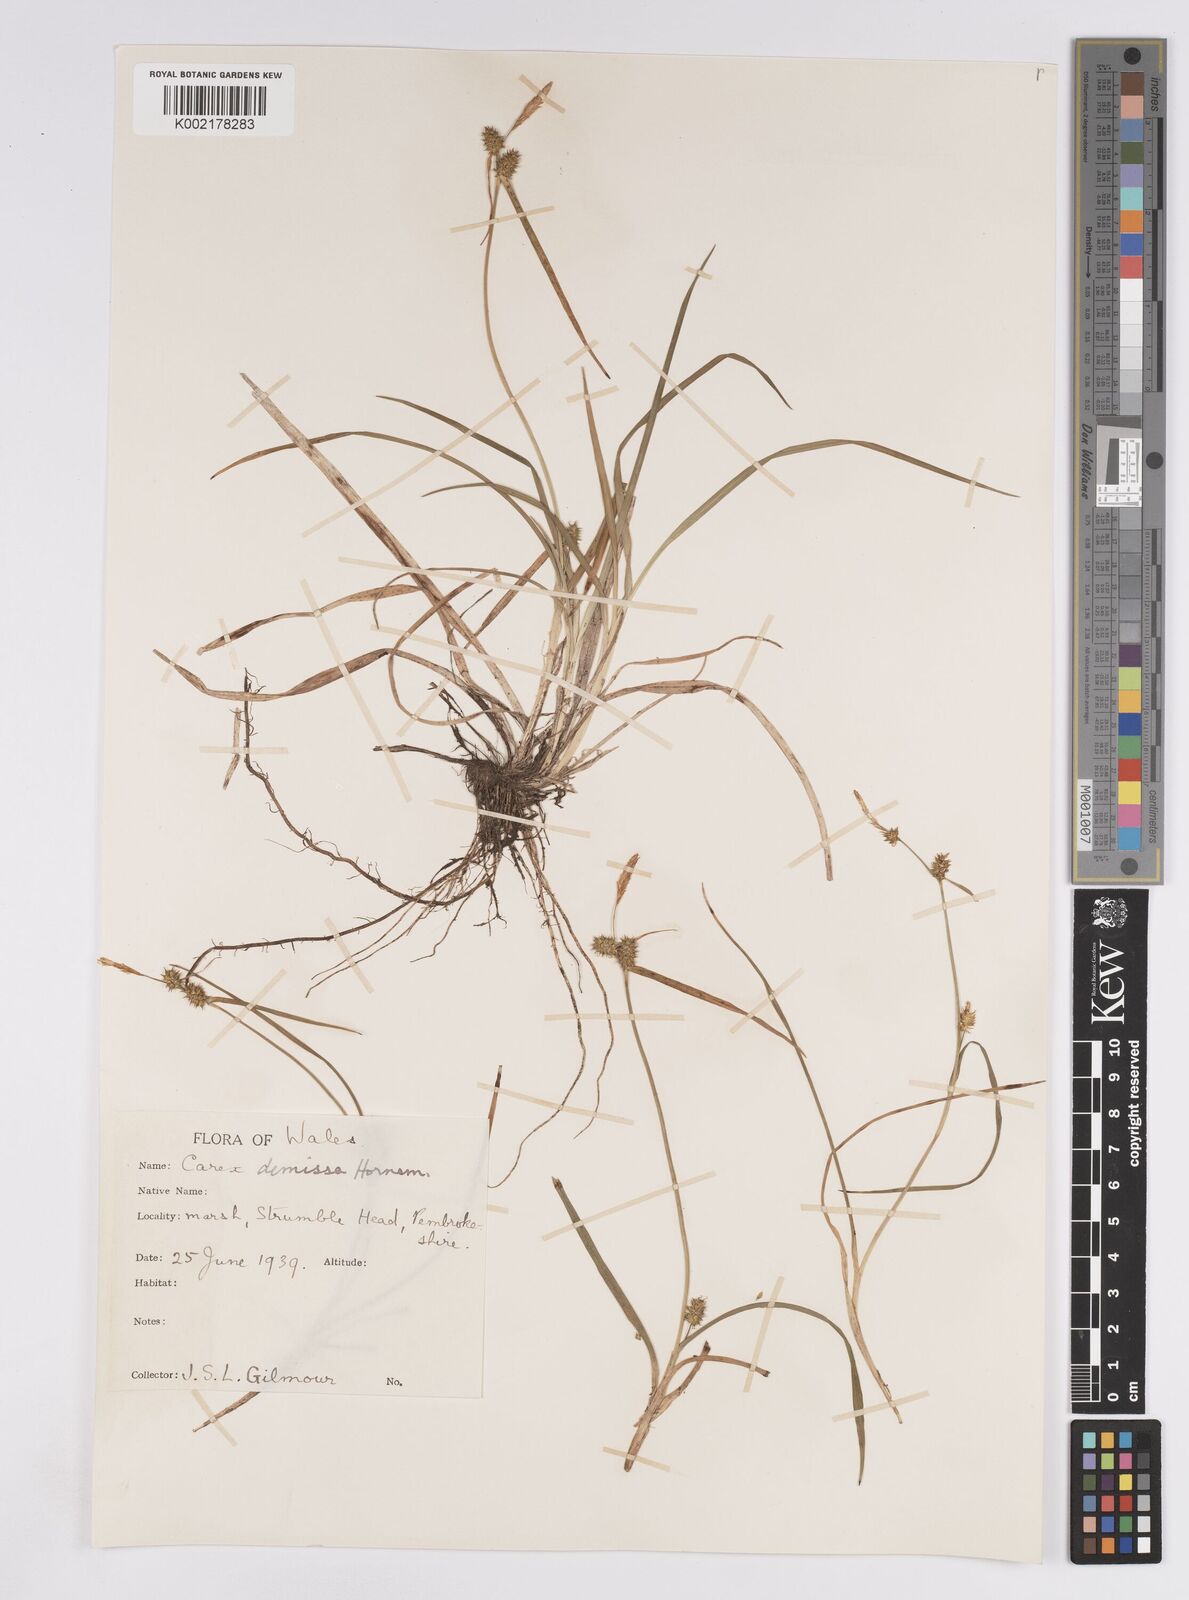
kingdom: Plantae
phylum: Tracheophyta
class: Liliopsida
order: Poales
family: Cyperaceae
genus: Carex
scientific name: Carex demissa
